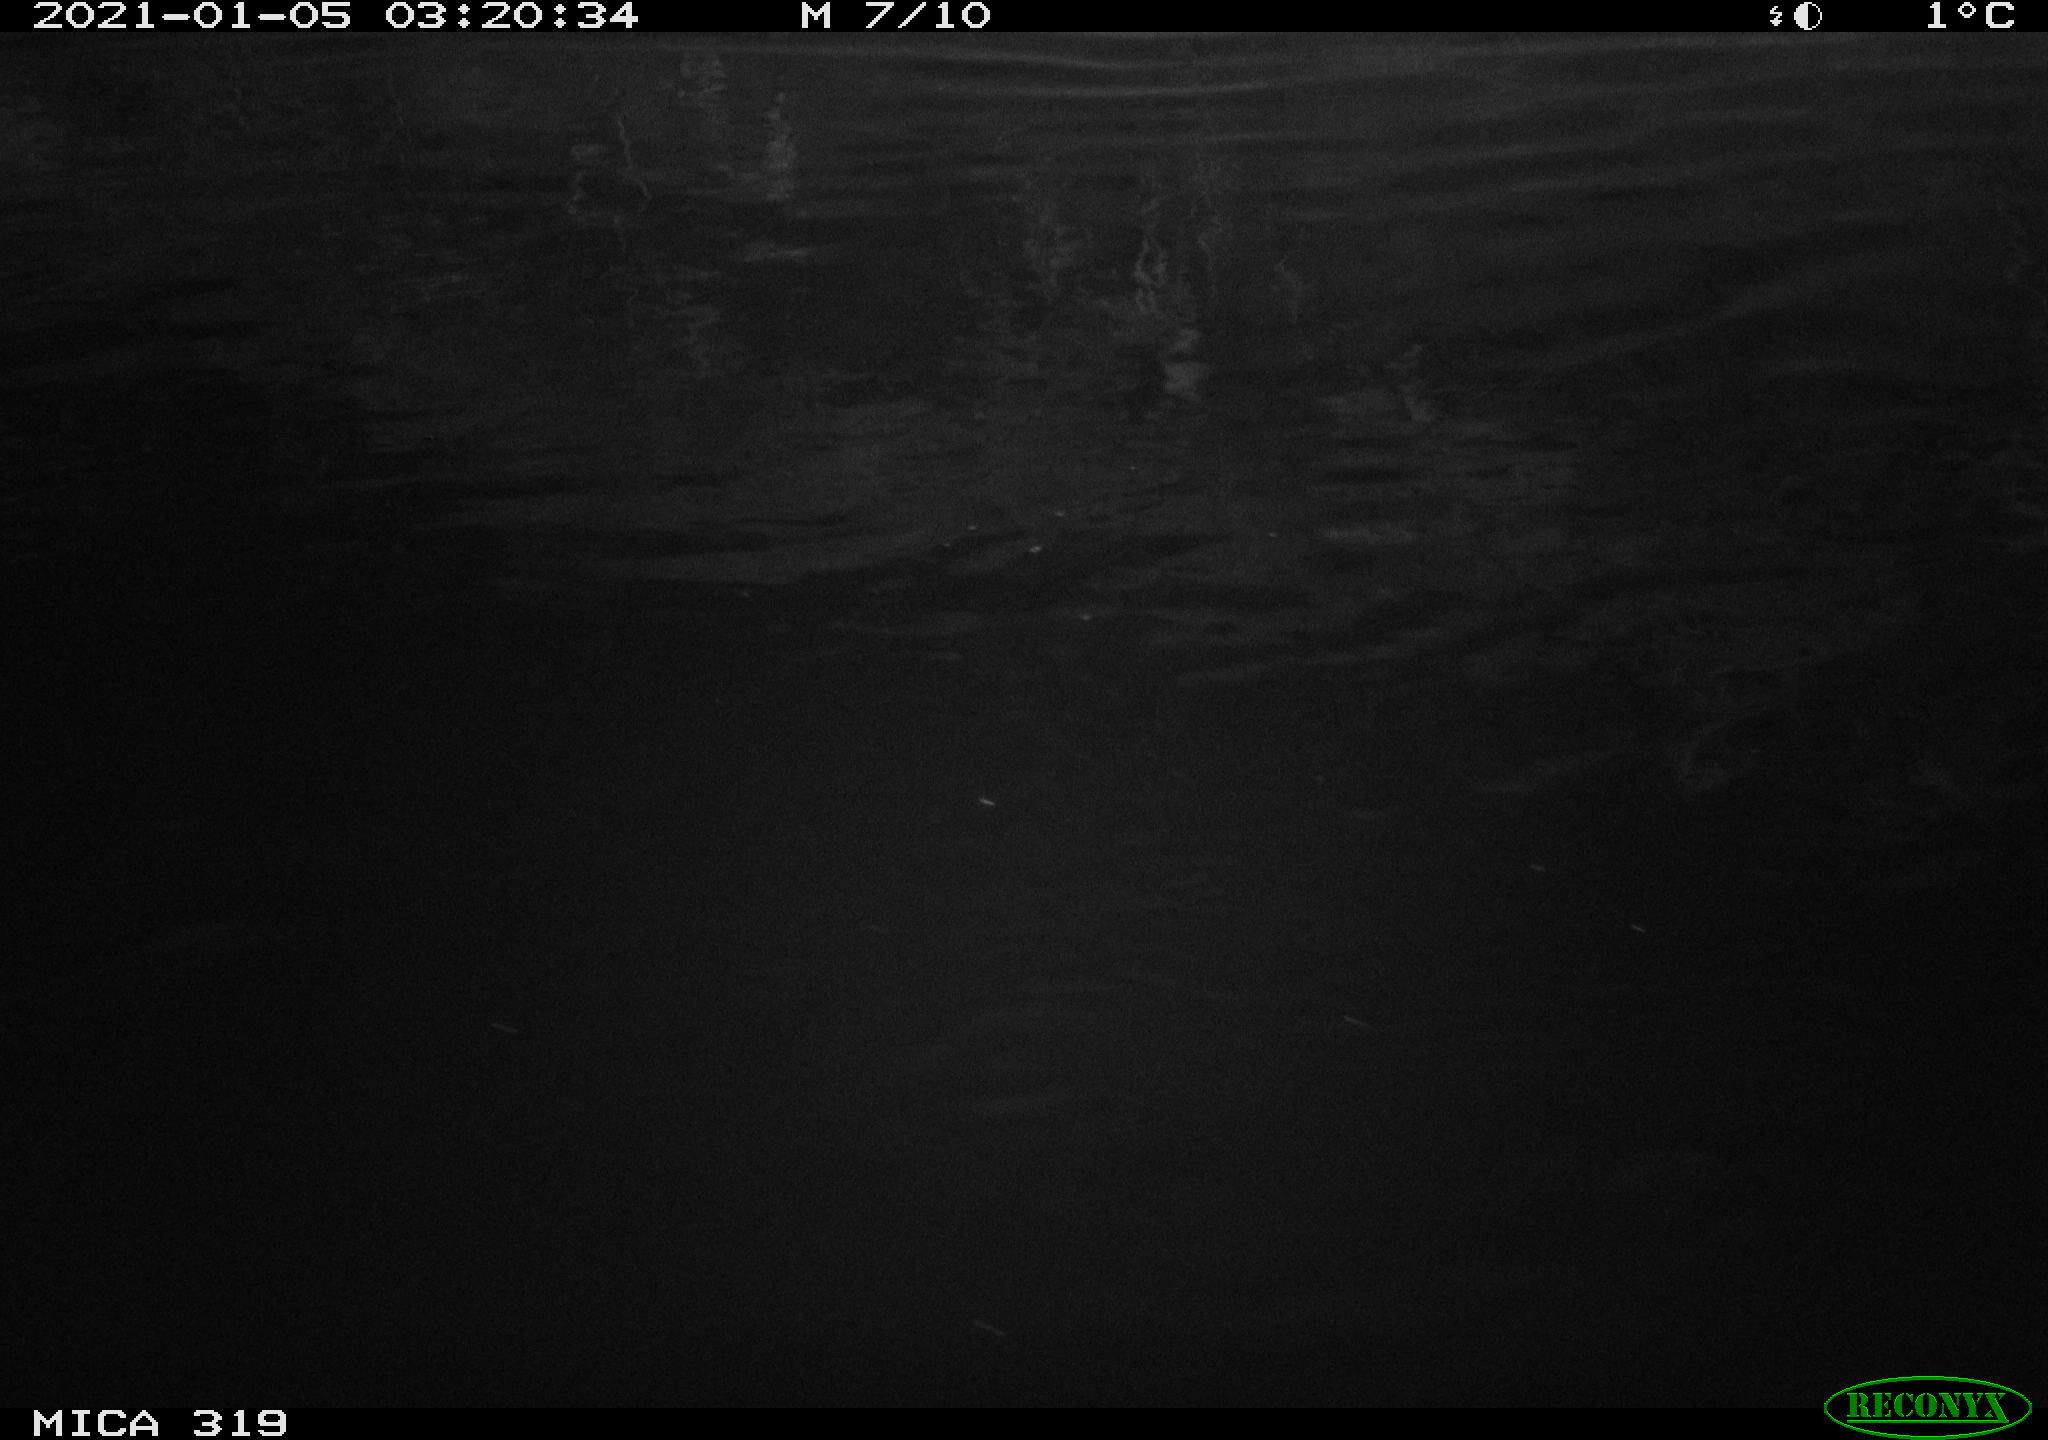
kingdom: Animalia
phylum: Chordata
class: Aves
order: Anseriformes
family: Anatidae
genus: Anas
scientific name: Anas platyrhynchos
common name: Mallard
